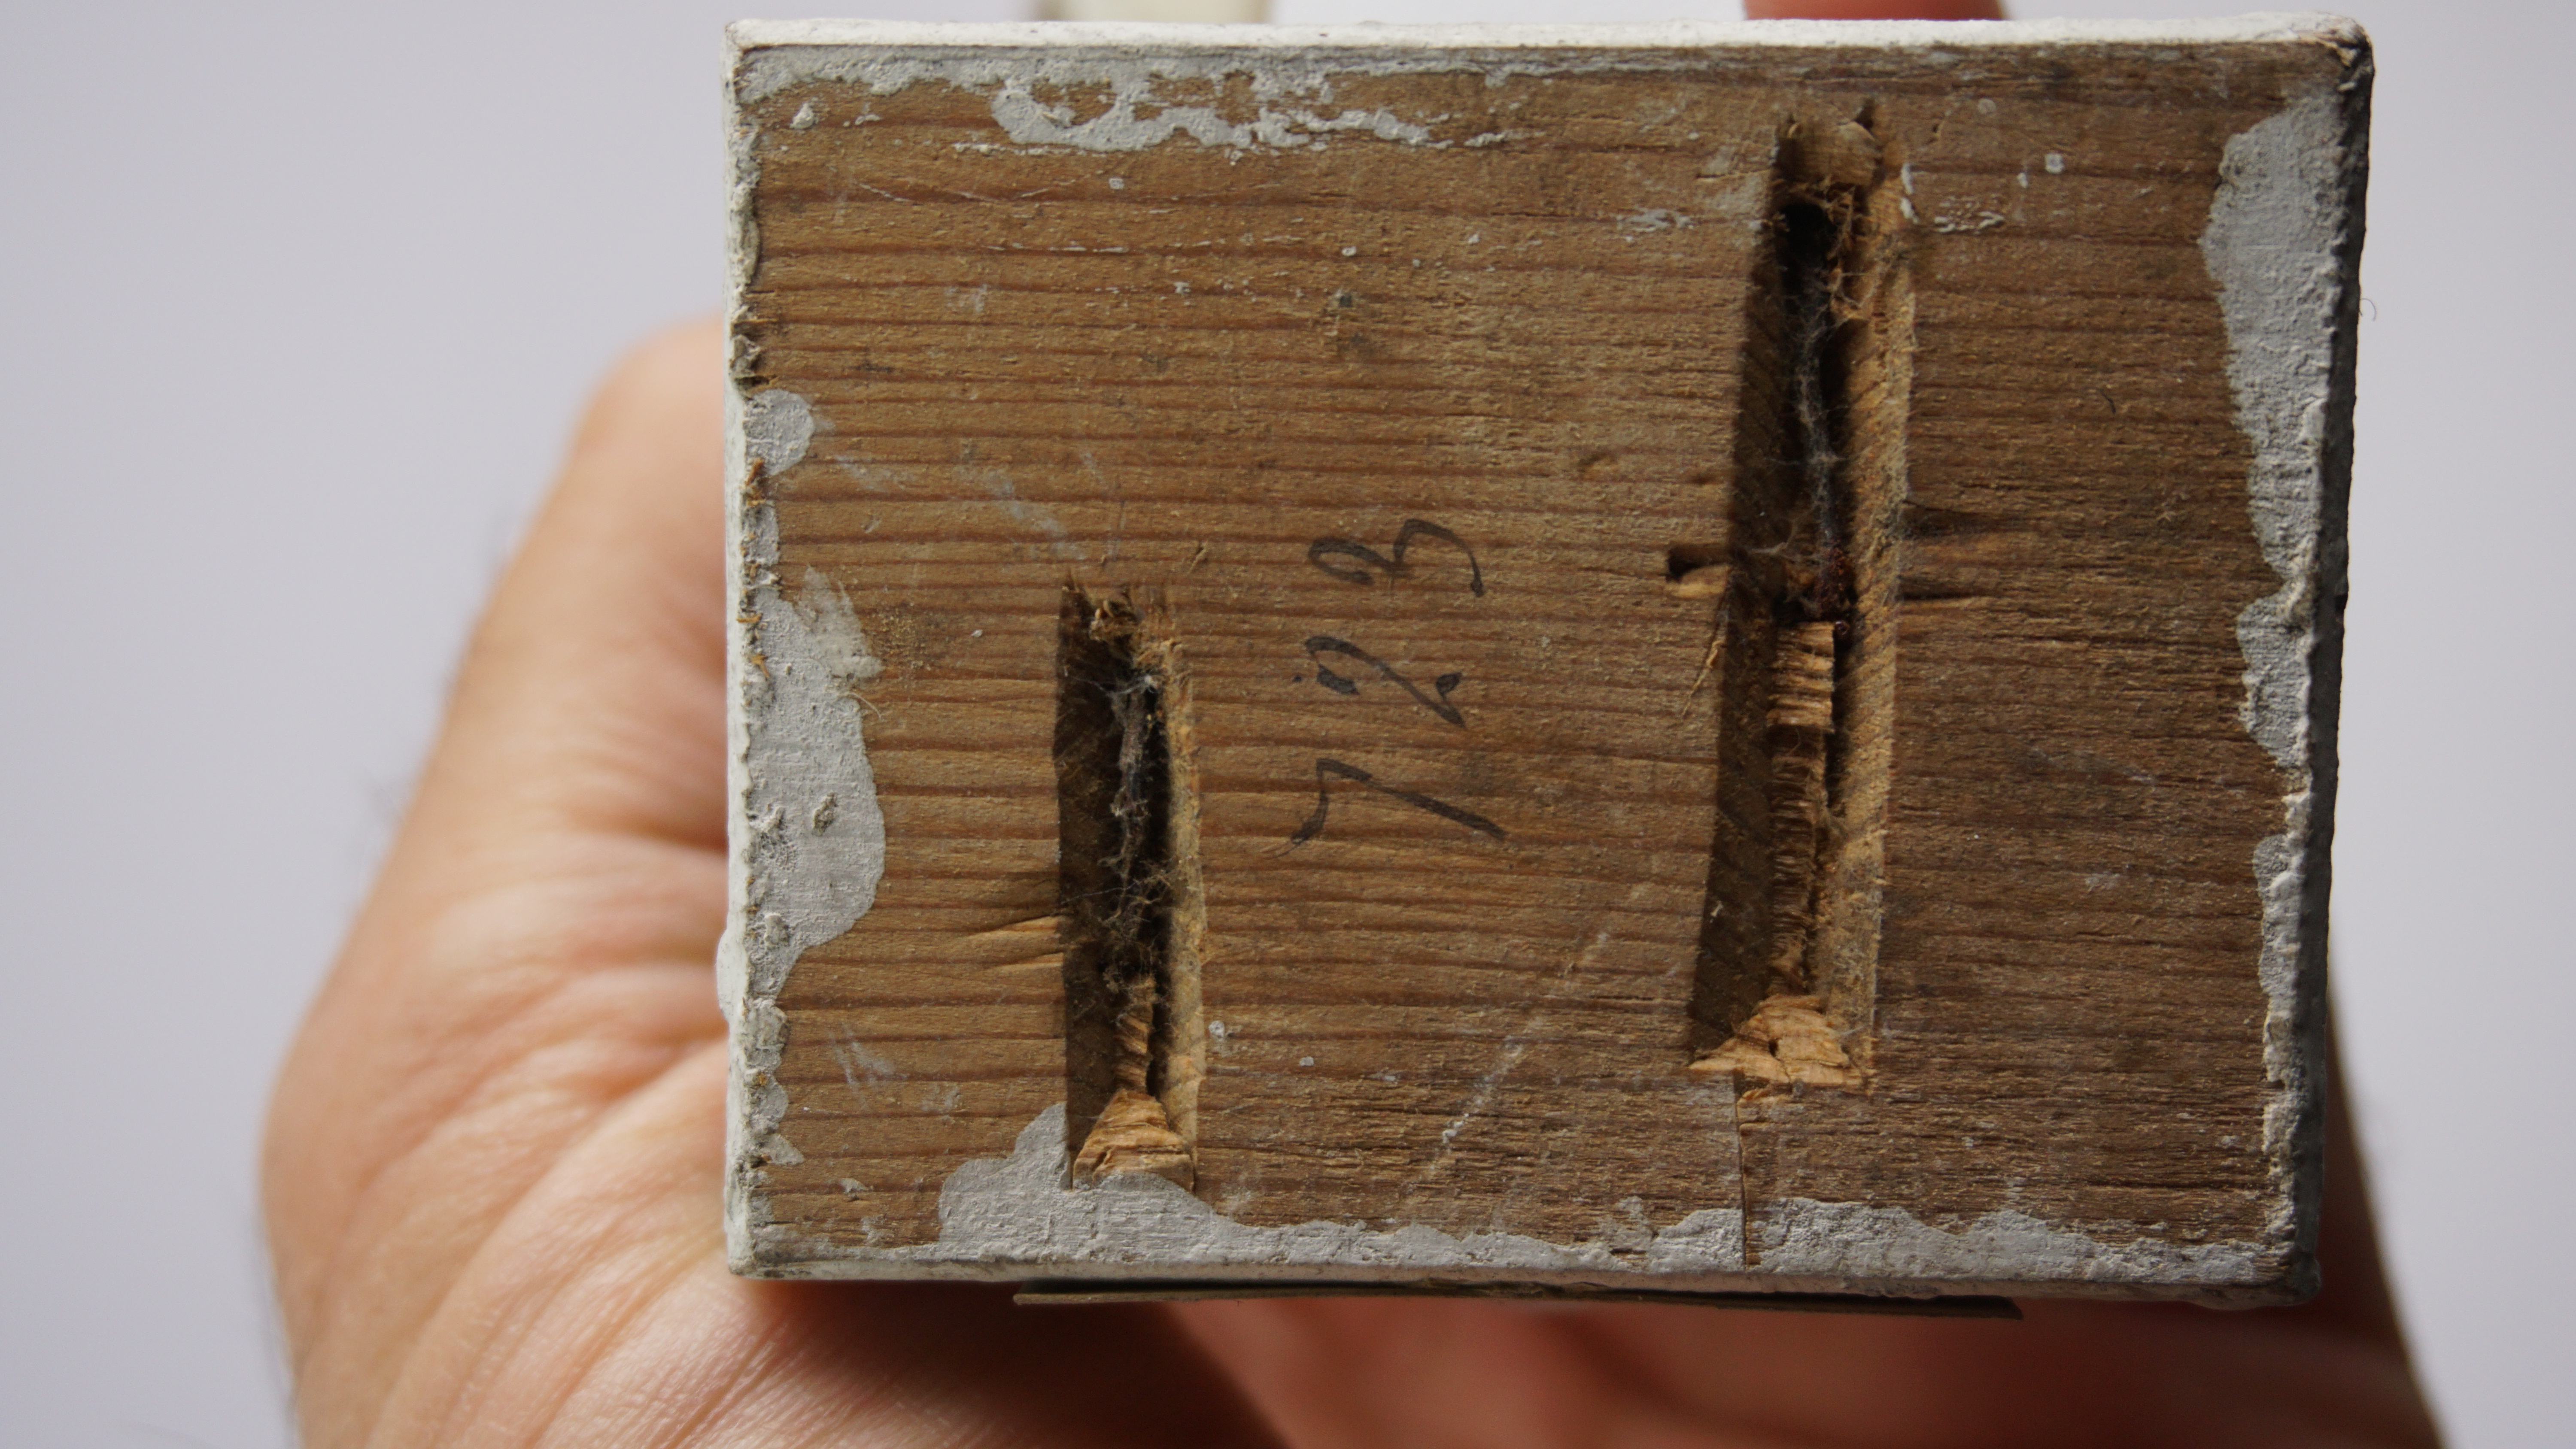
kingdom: Animalia
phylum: Chordata
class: Aves
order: Charadriiformes
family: Charadriidae
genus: Charadrius
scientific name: Charadrius wilsonia
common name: Wilson's plover
